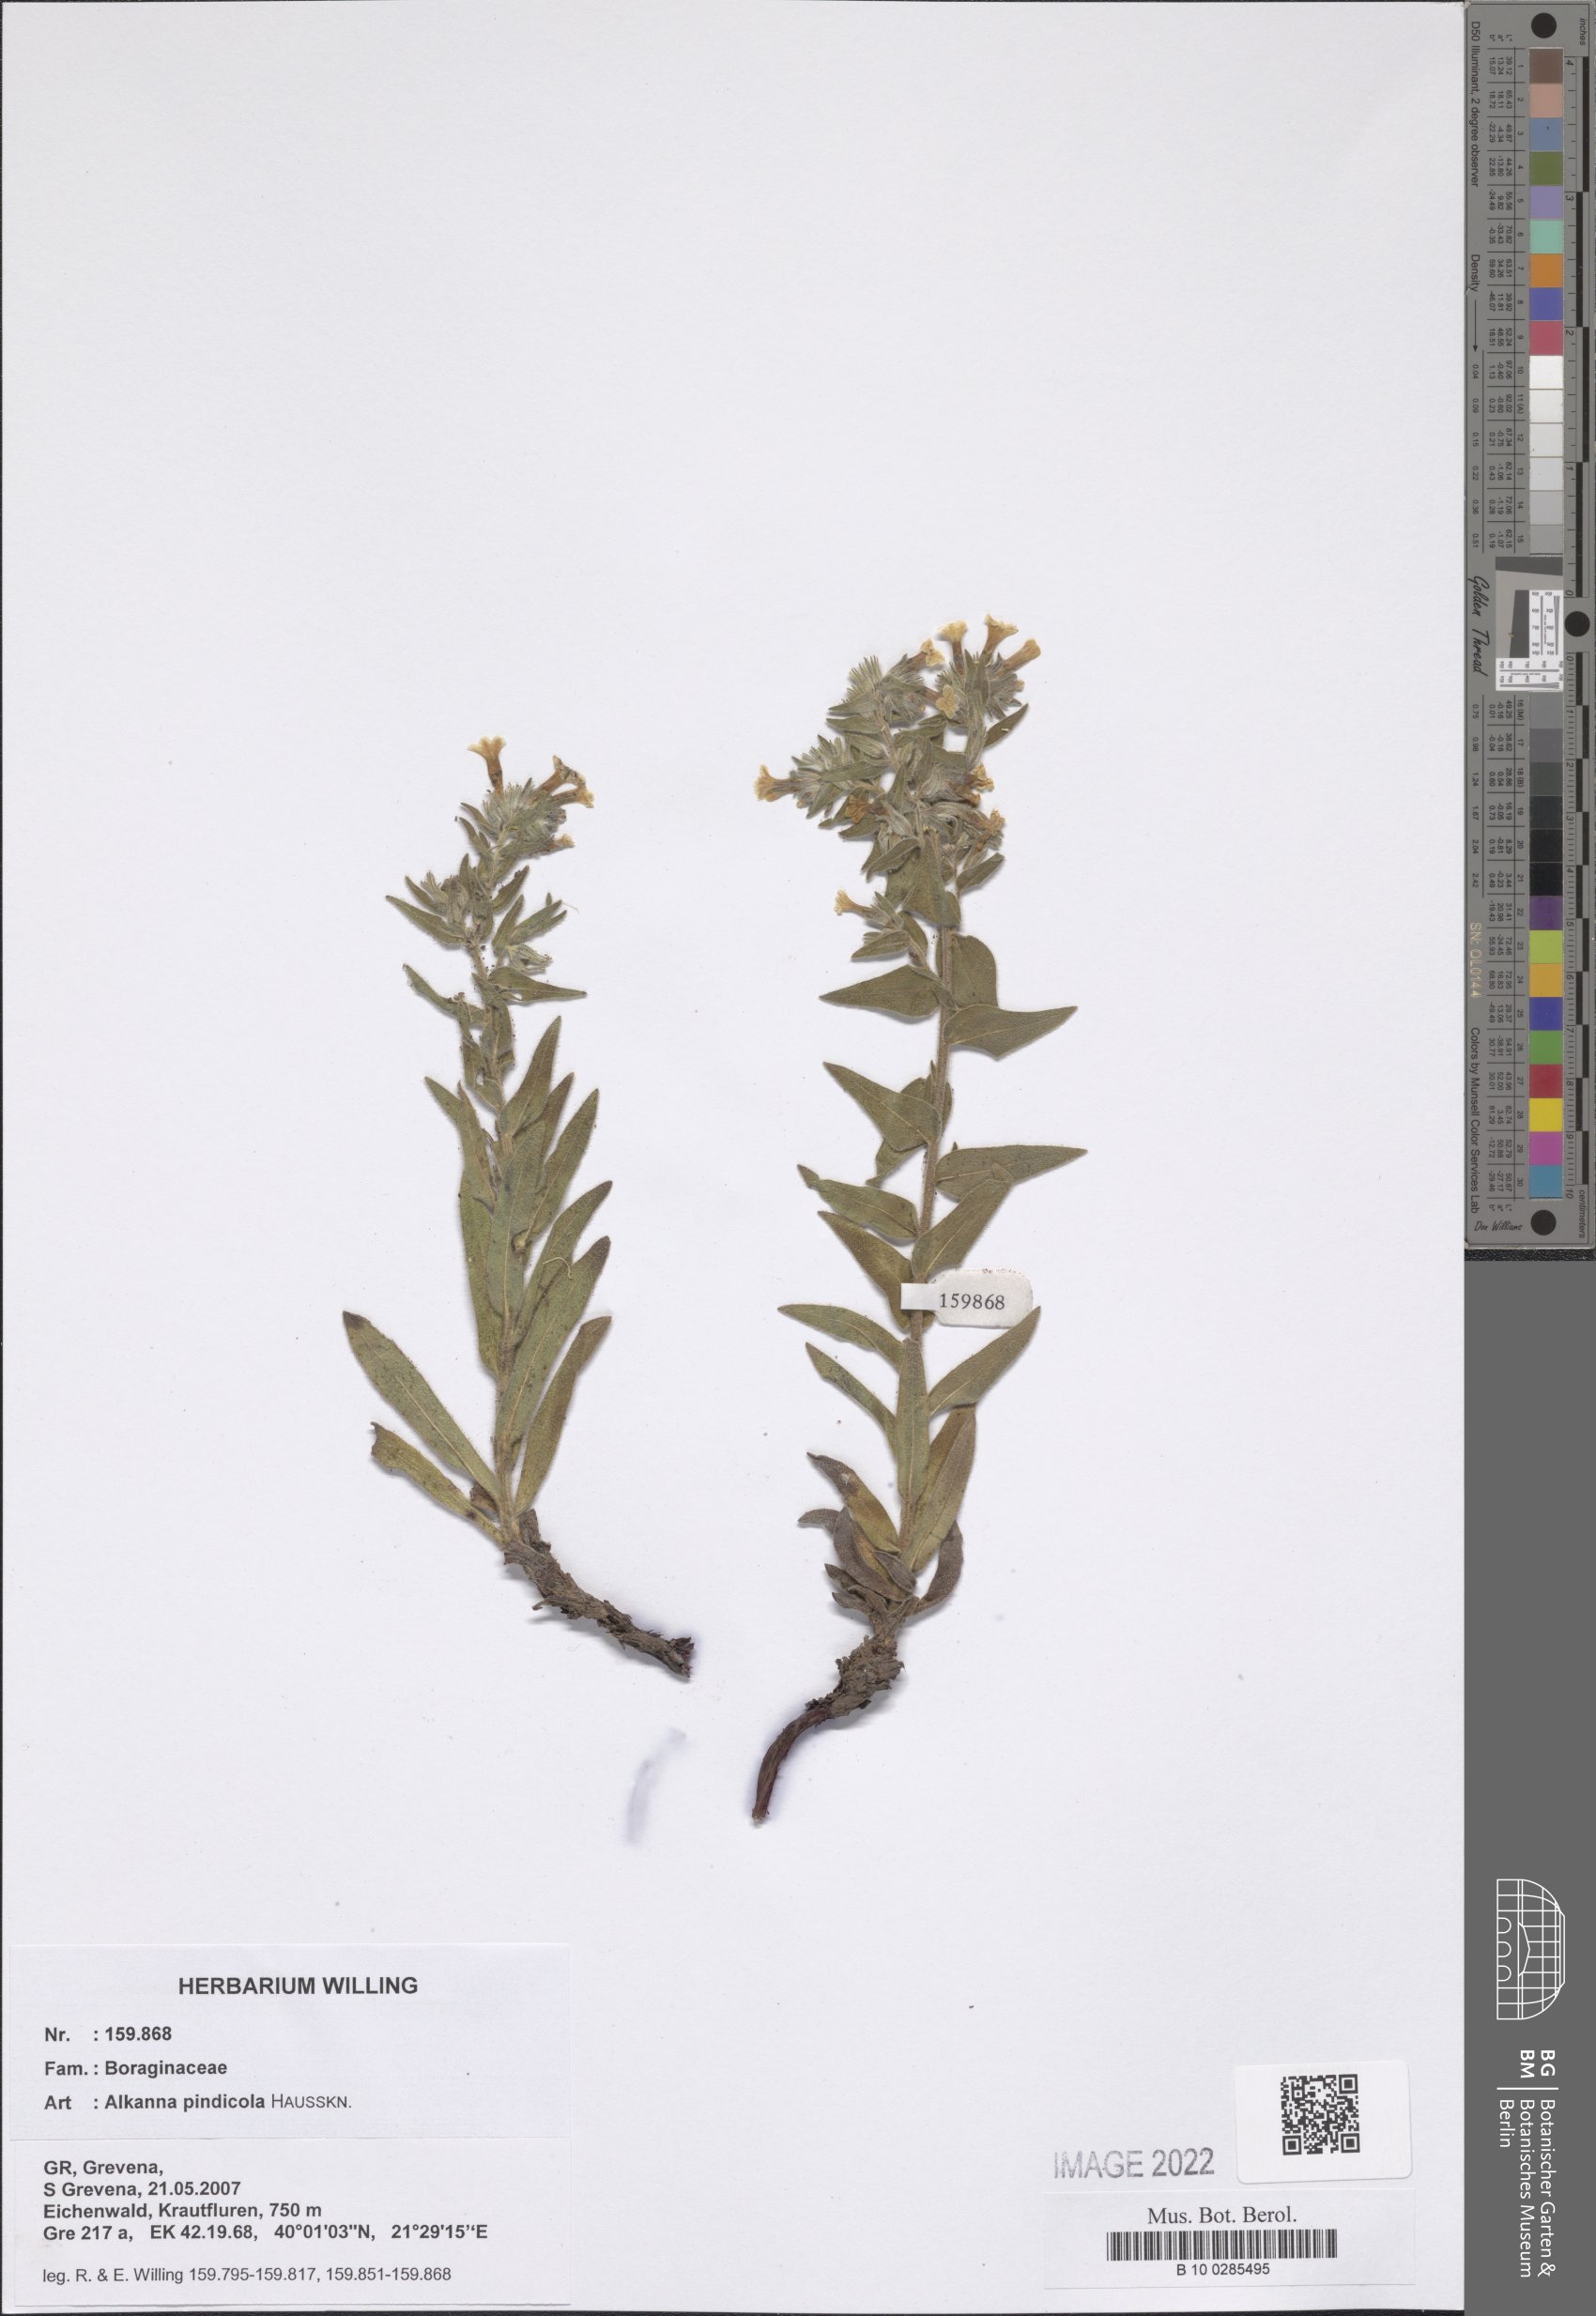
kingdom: Plantae
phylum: Tracheophyta
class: Magnoliopsida
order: Boraginales
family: Boraginaceae
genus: Alkanna
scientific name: Alkanna pindicola
